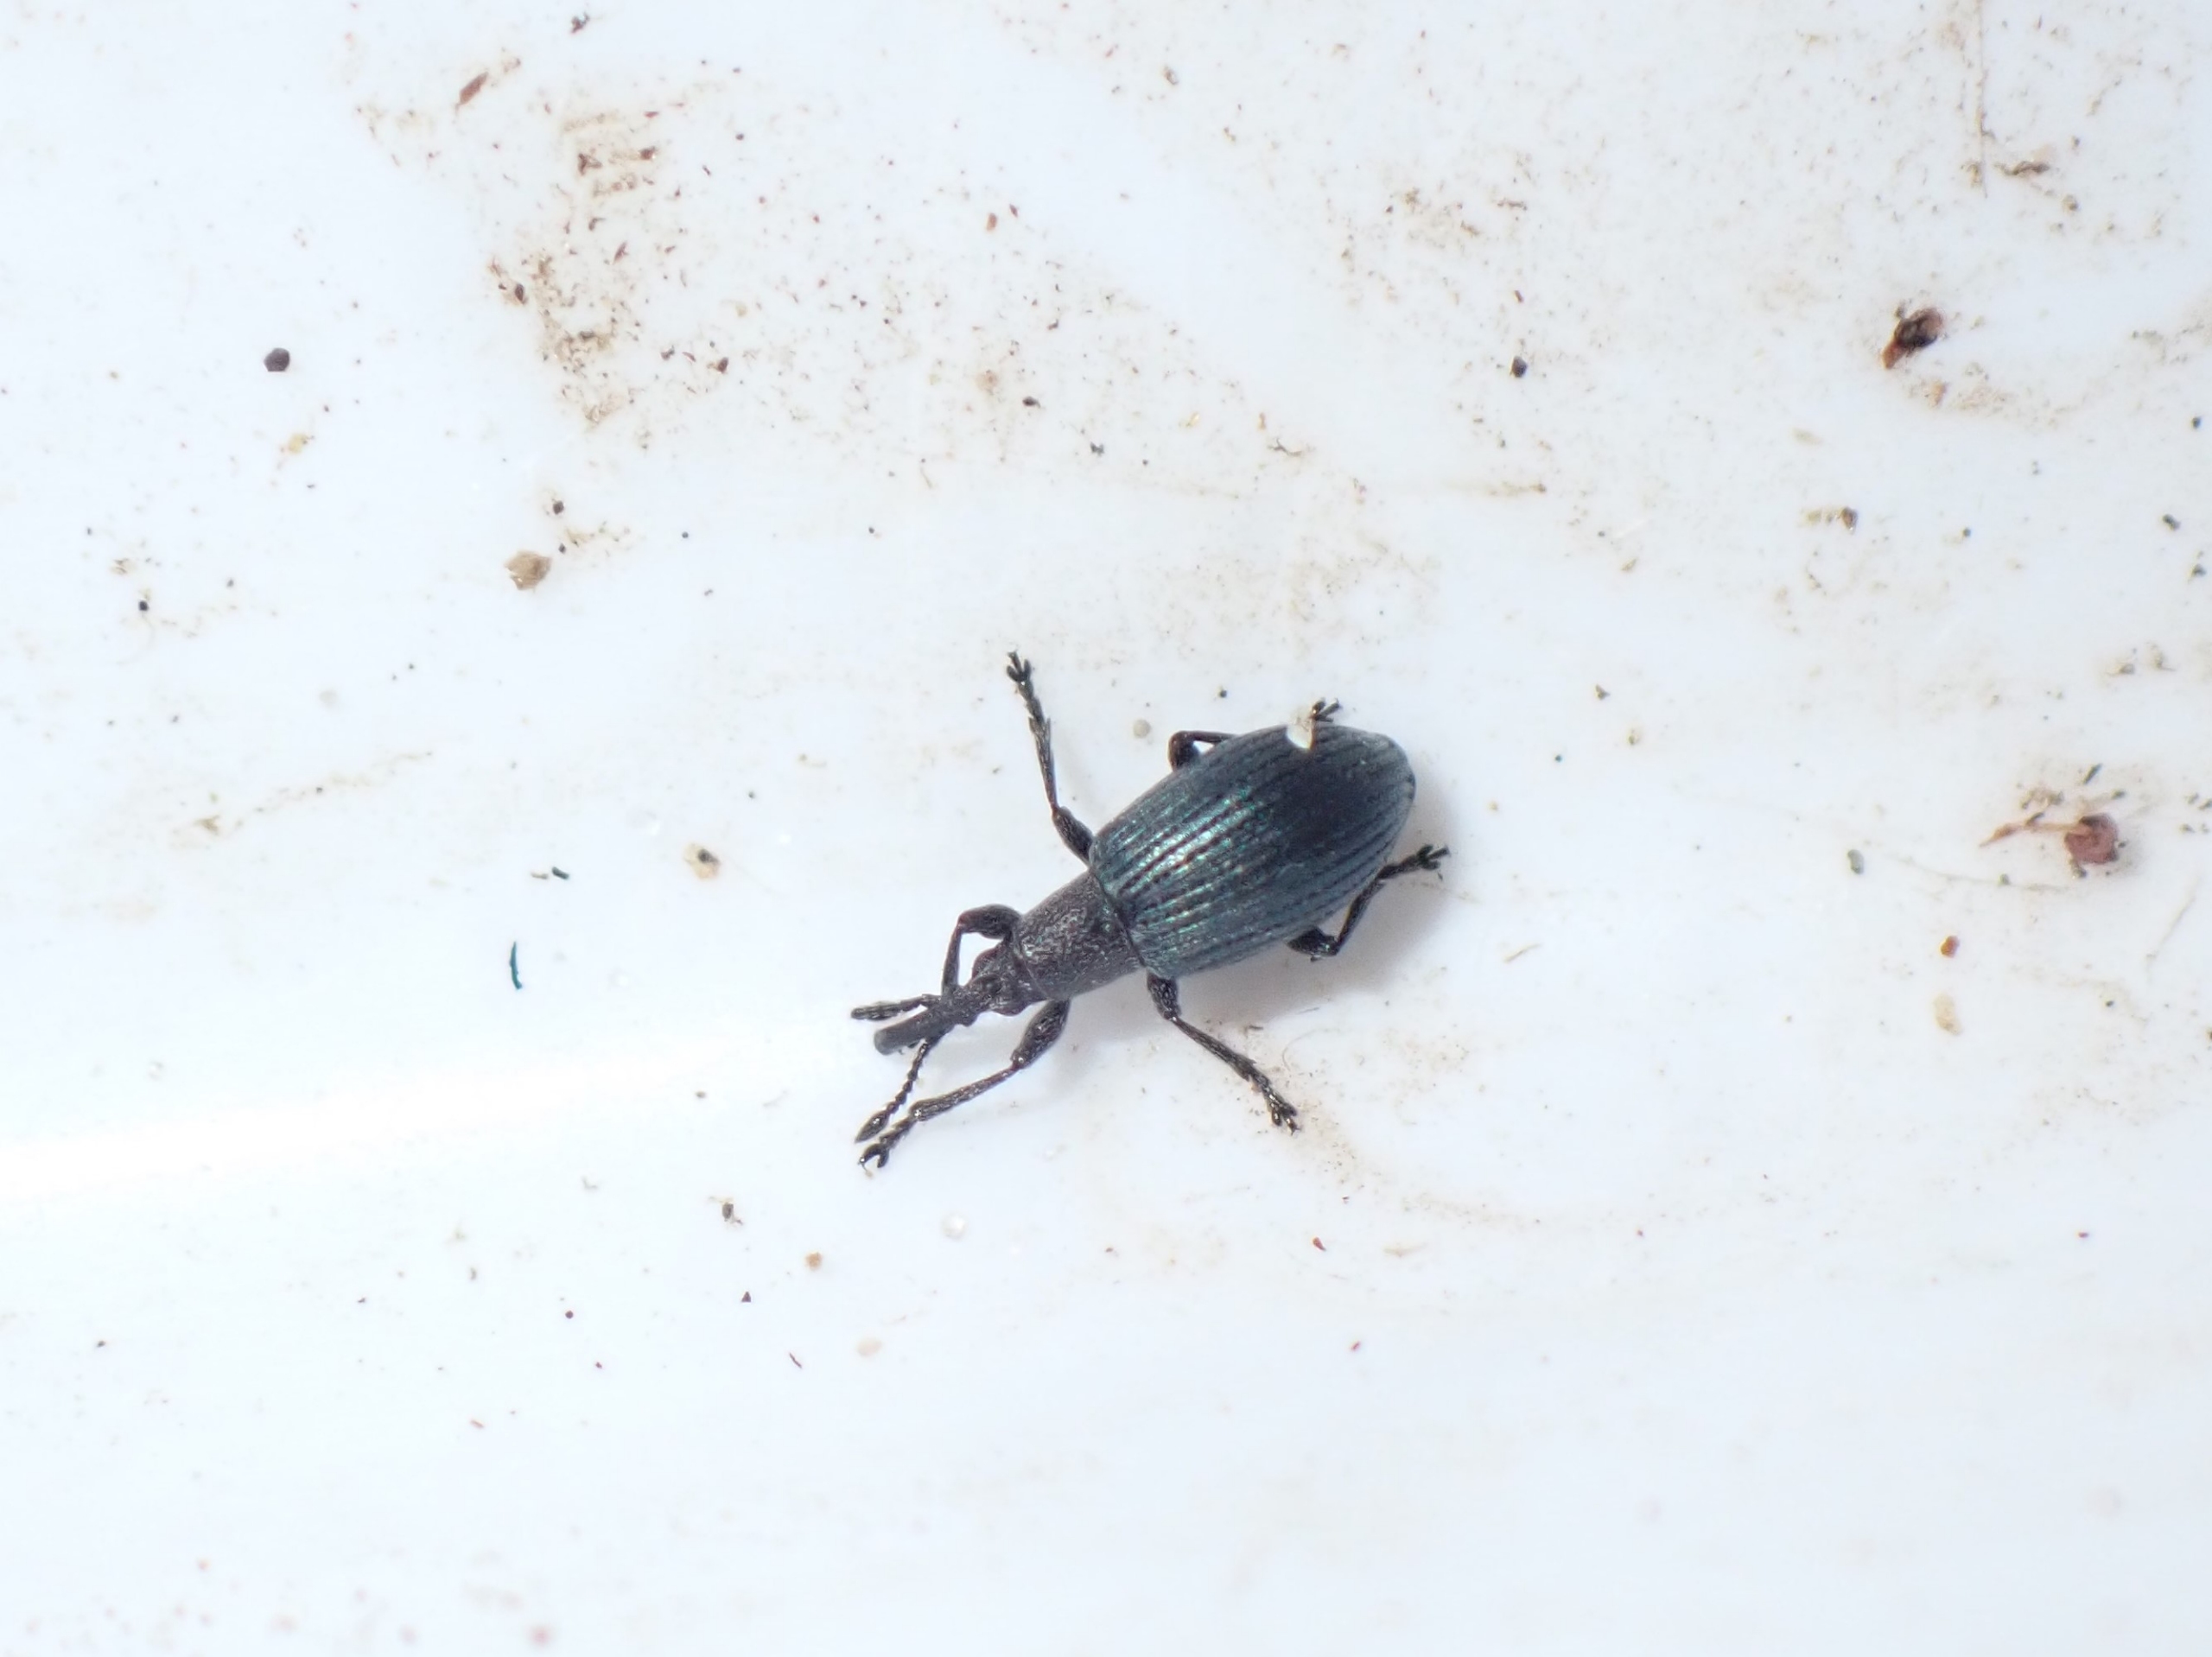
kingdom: Animalia
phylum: Arthropoda
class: Insecta
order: Coleoptera
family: Apionidae
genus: Ceratapion
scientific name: Ceratapion gibbirostre
